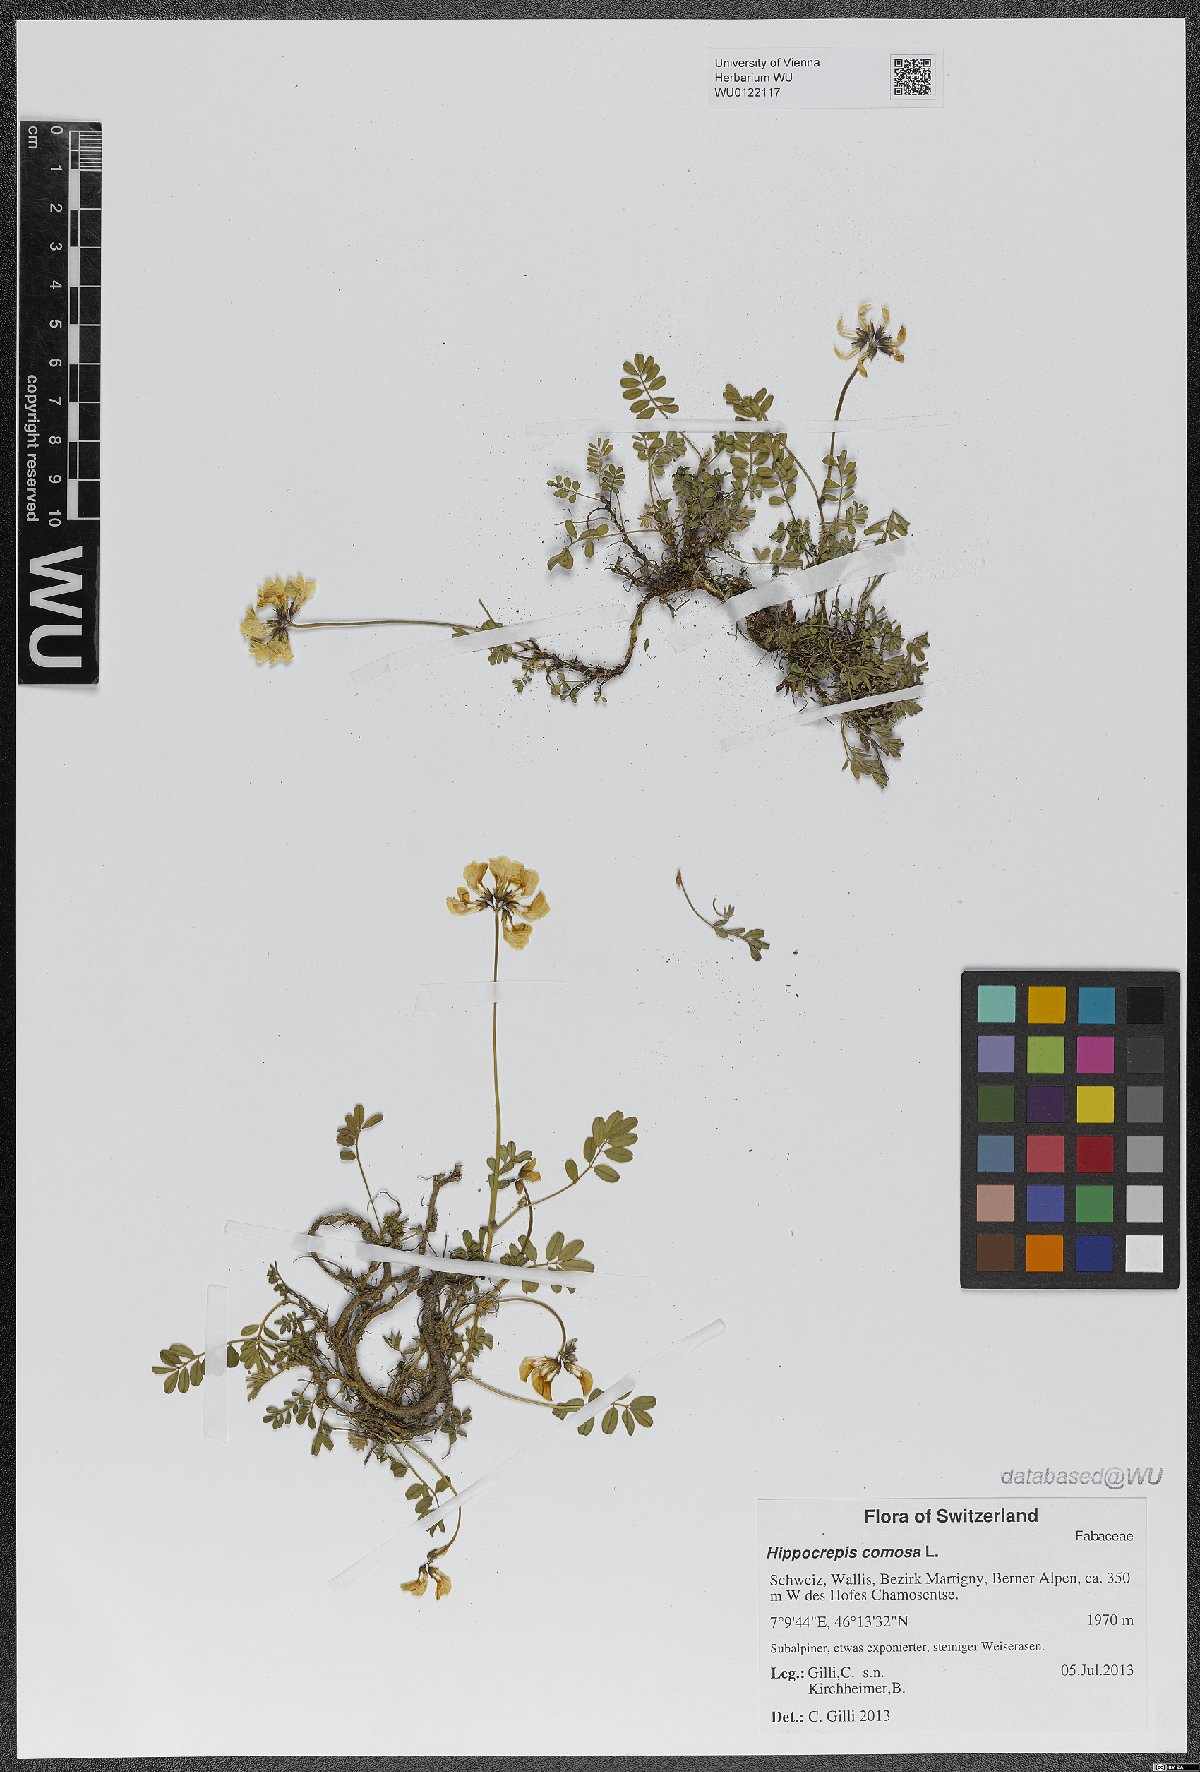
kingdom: Plantae
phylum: Tracheophyta
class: Magnoliopsida
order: Fabales
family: Fabaceae
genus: Hippocrepis
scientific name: Hippocrepis comosa
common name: Horseshoe vetch
